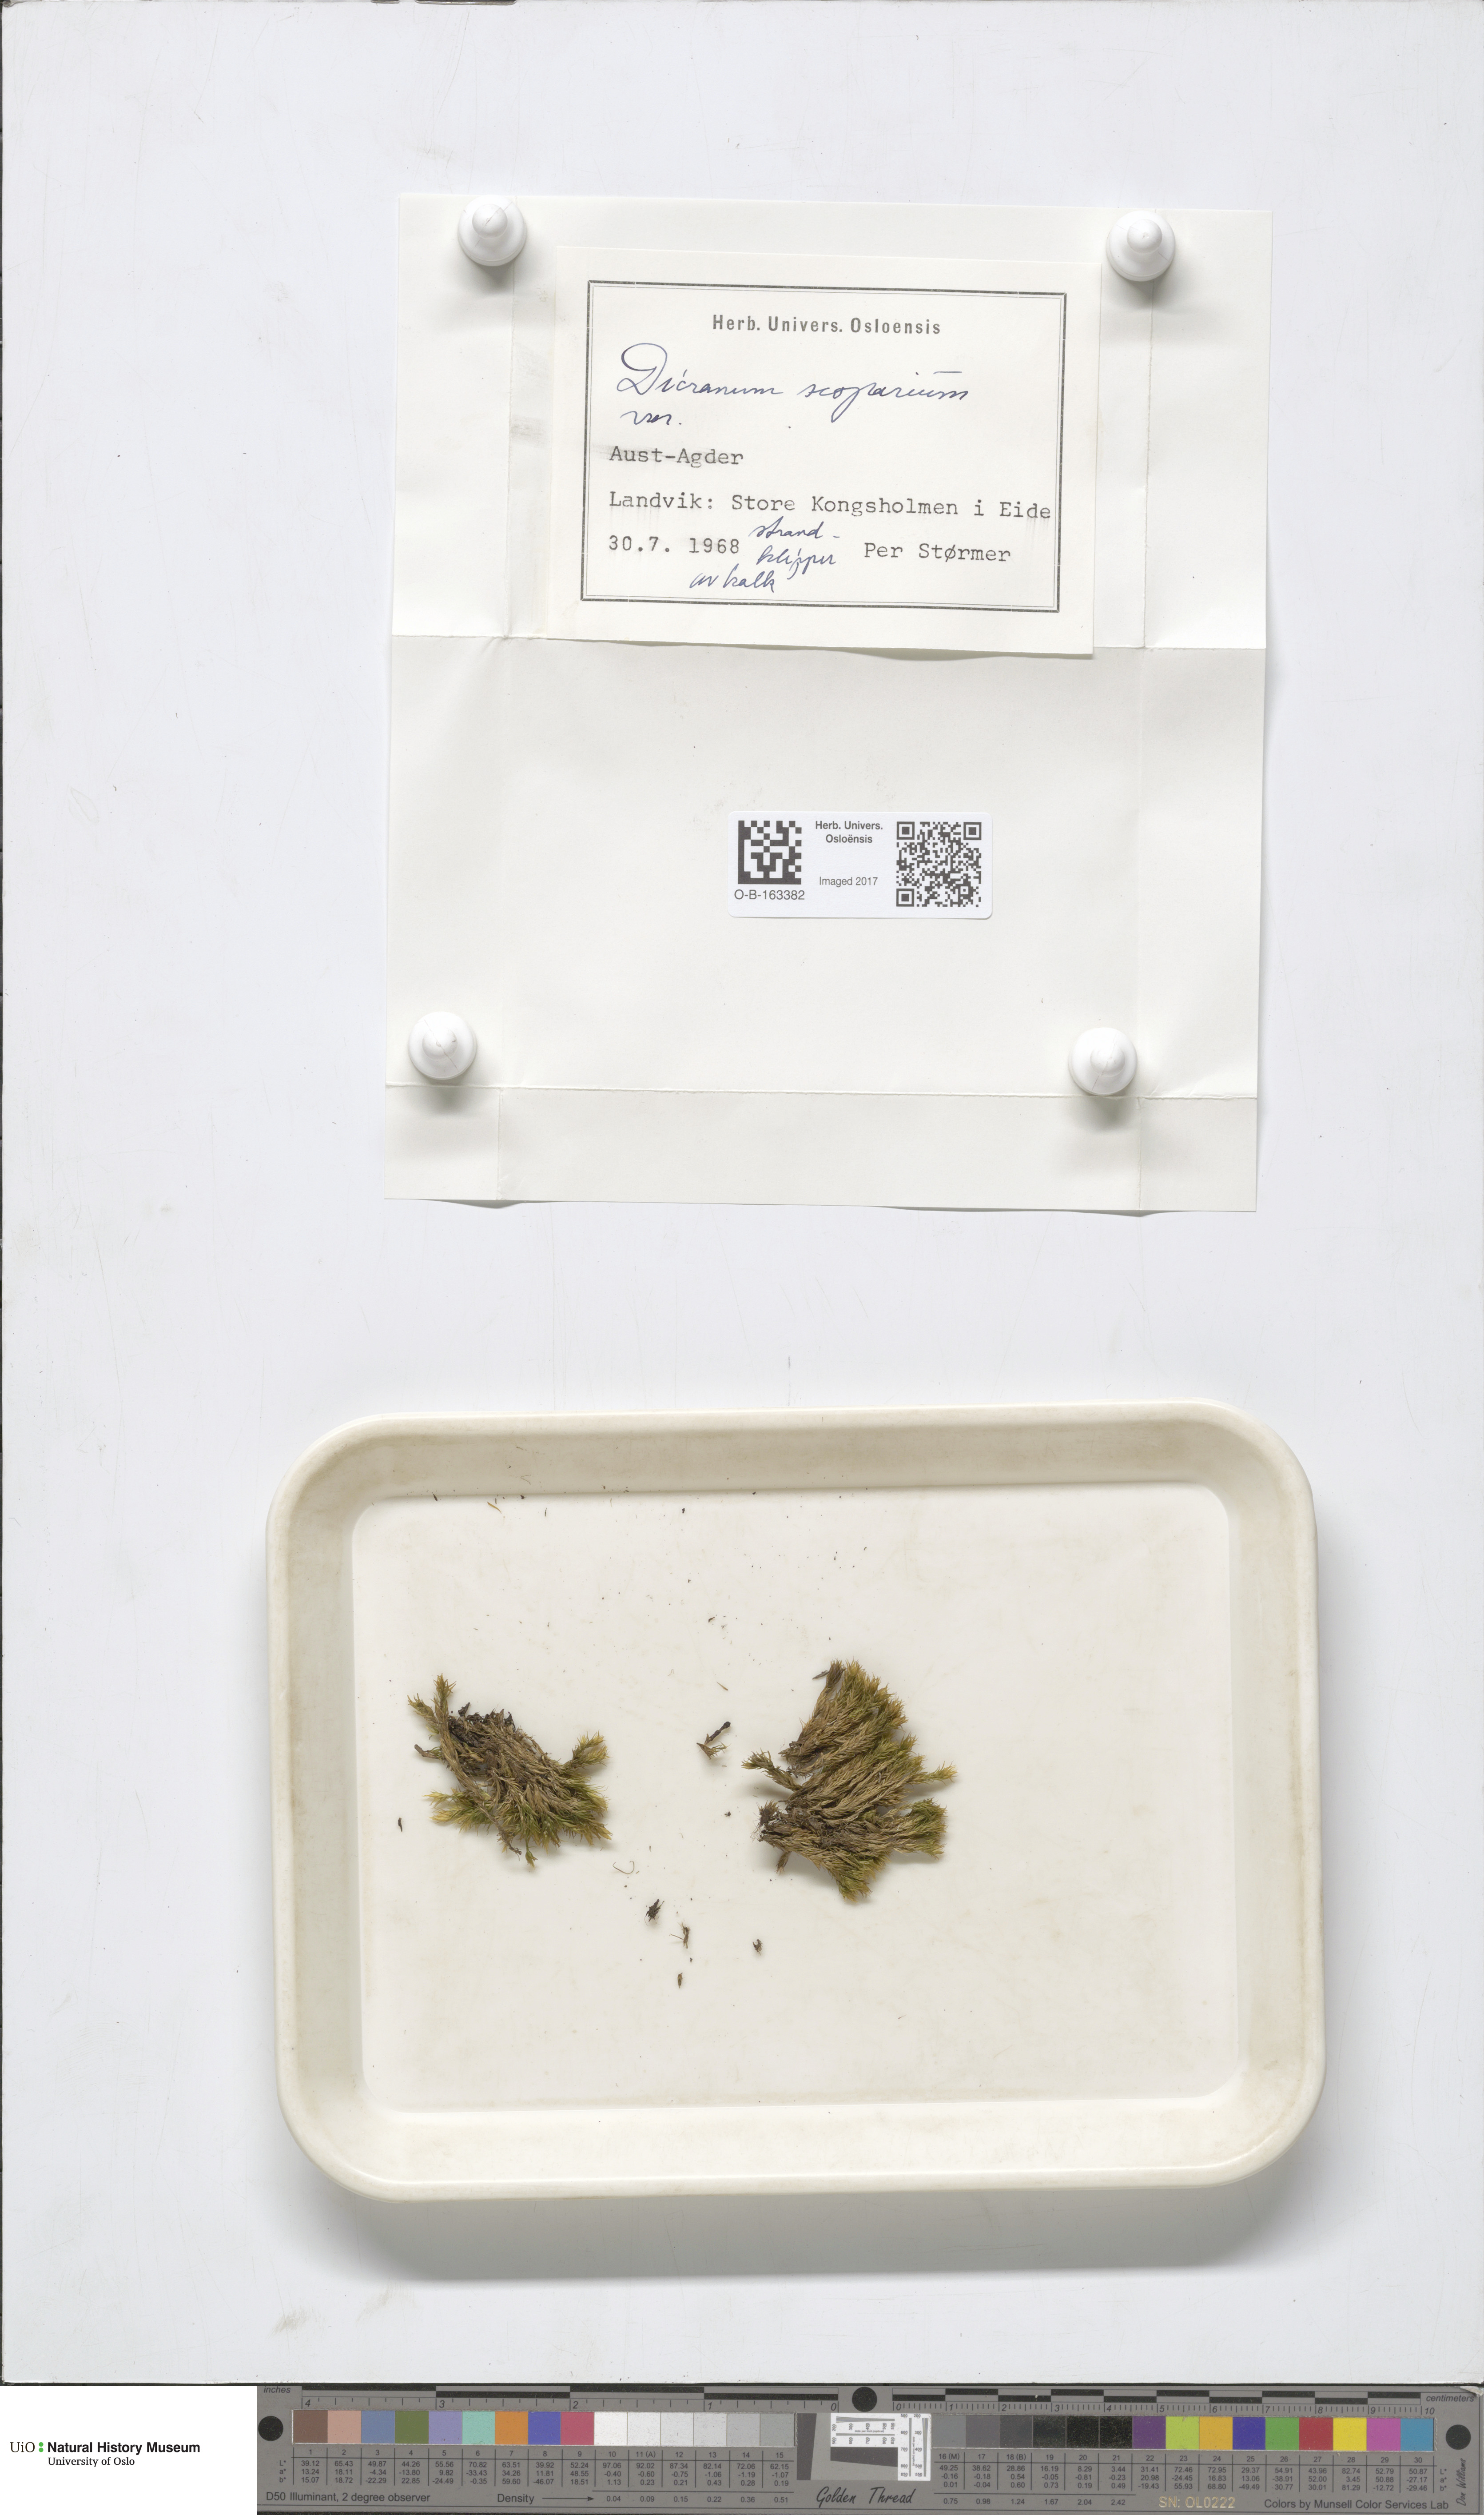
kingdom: Plantae
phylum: Bryophyta
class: Bryopsida
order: Dicranales
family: Dicranaceae
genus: Dicranum
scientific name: Dicranum scoparium
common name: Broom fork-moss
